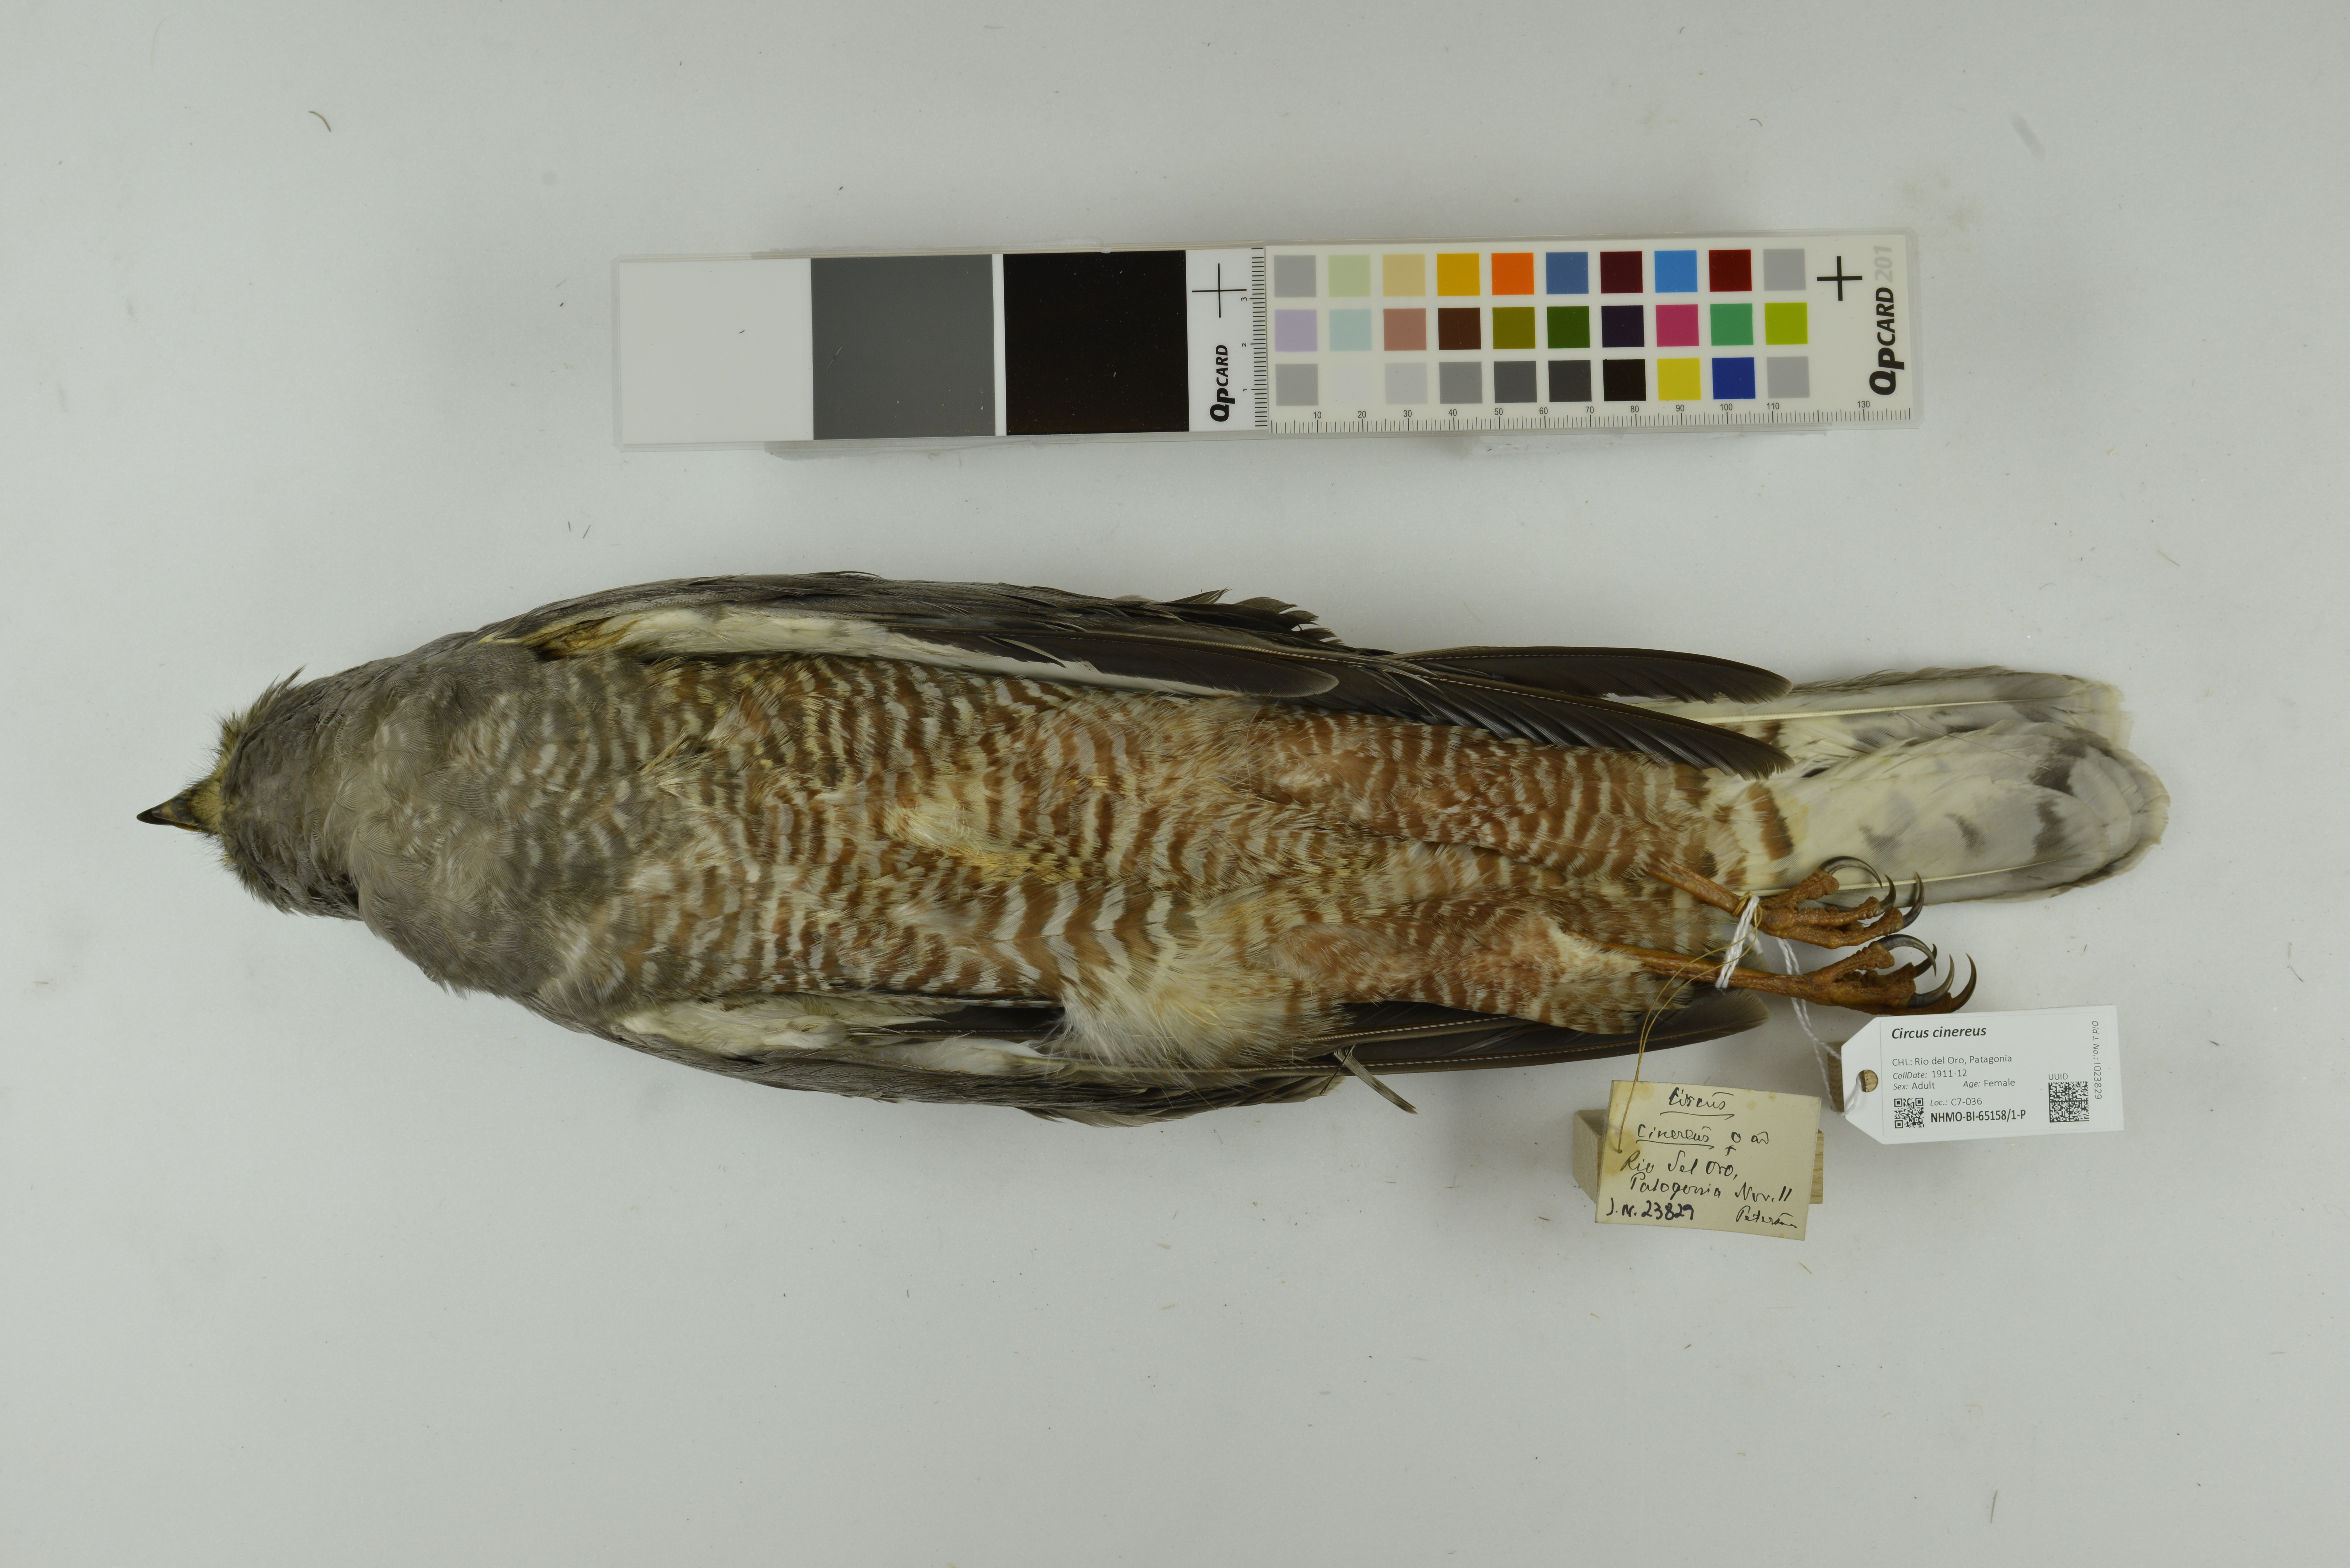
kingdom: Animalia
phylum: Chordata
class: Aves
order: Accipitriformes
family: Accipitridae
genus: Circus
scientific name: Circus cinereus
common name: Cinereous harrier
